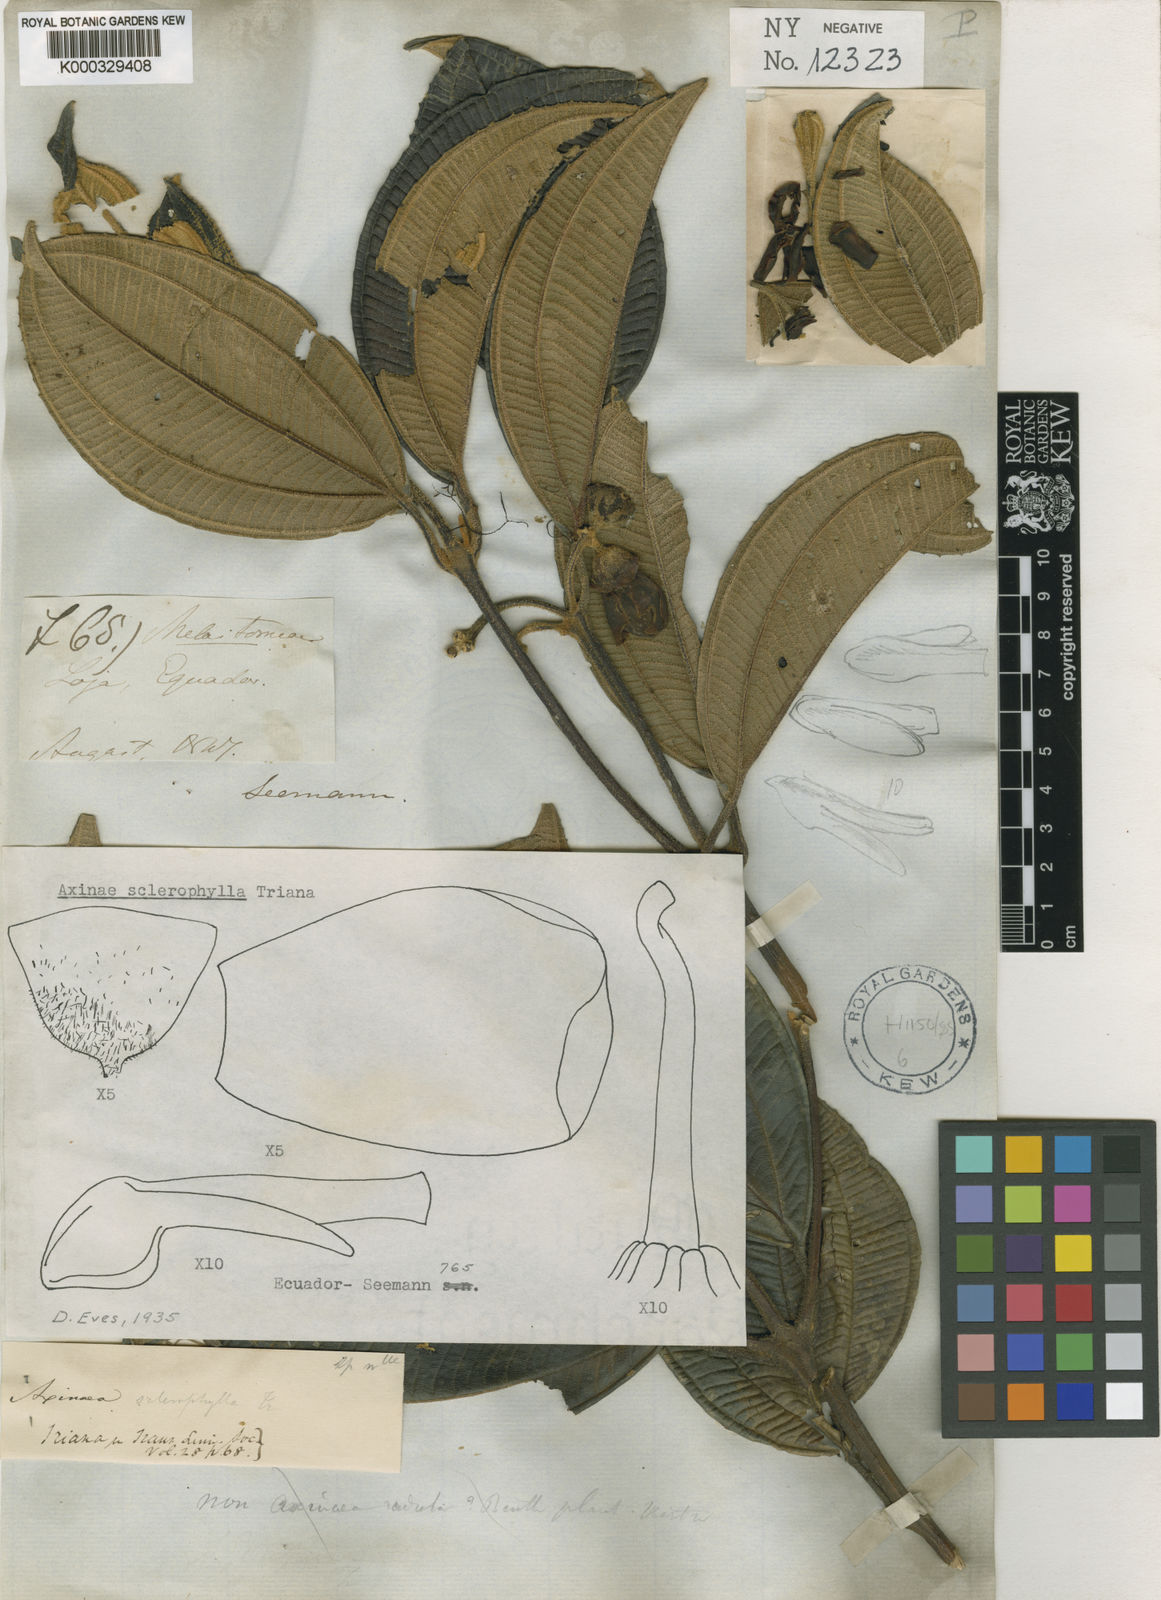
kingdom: Plantae
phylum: Tracheophyta
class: Magnoliopsida
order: Myrtales
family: Melastomataceae
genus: Axinaea
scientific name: Axinaea sclerophylla
